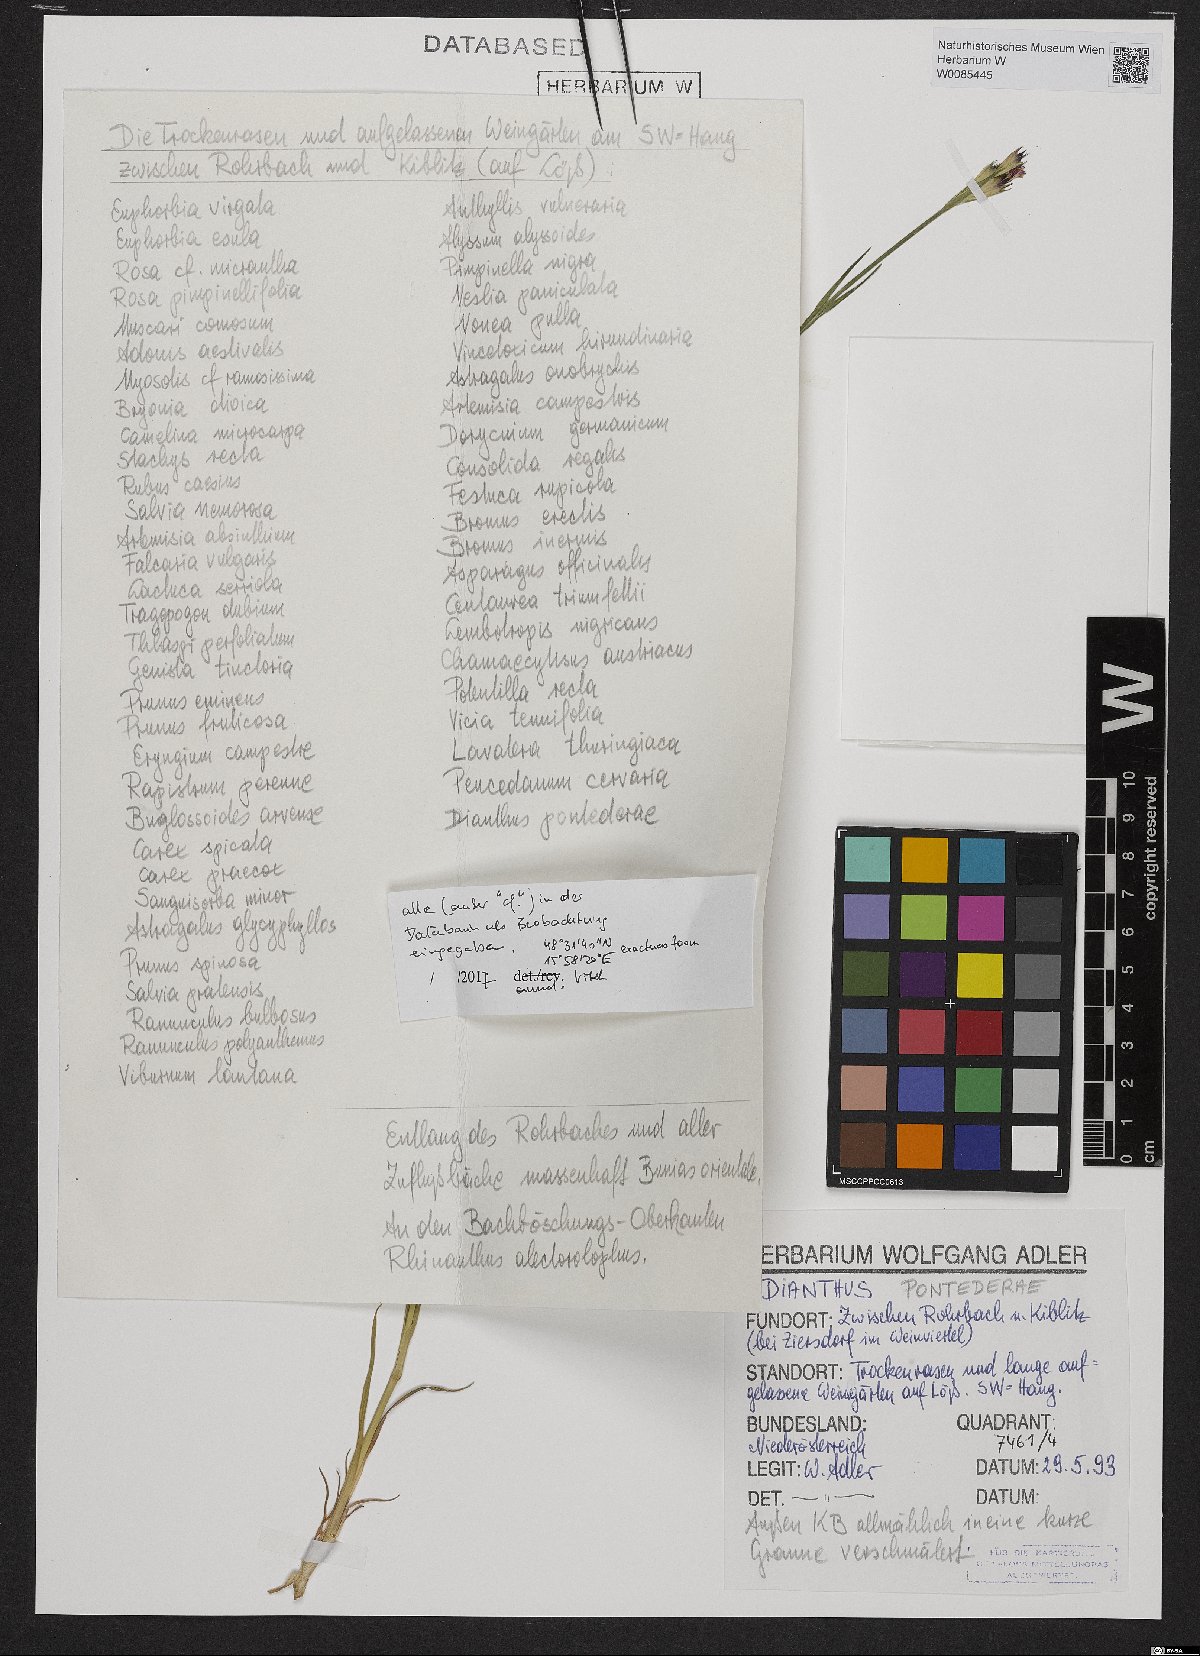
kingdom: Plantae
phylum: Tracheophyta
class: Magnoliopsida
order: Caryophyllales
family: Caryophyllaceae
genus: Dianthus
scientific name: Dianthus pontederae
